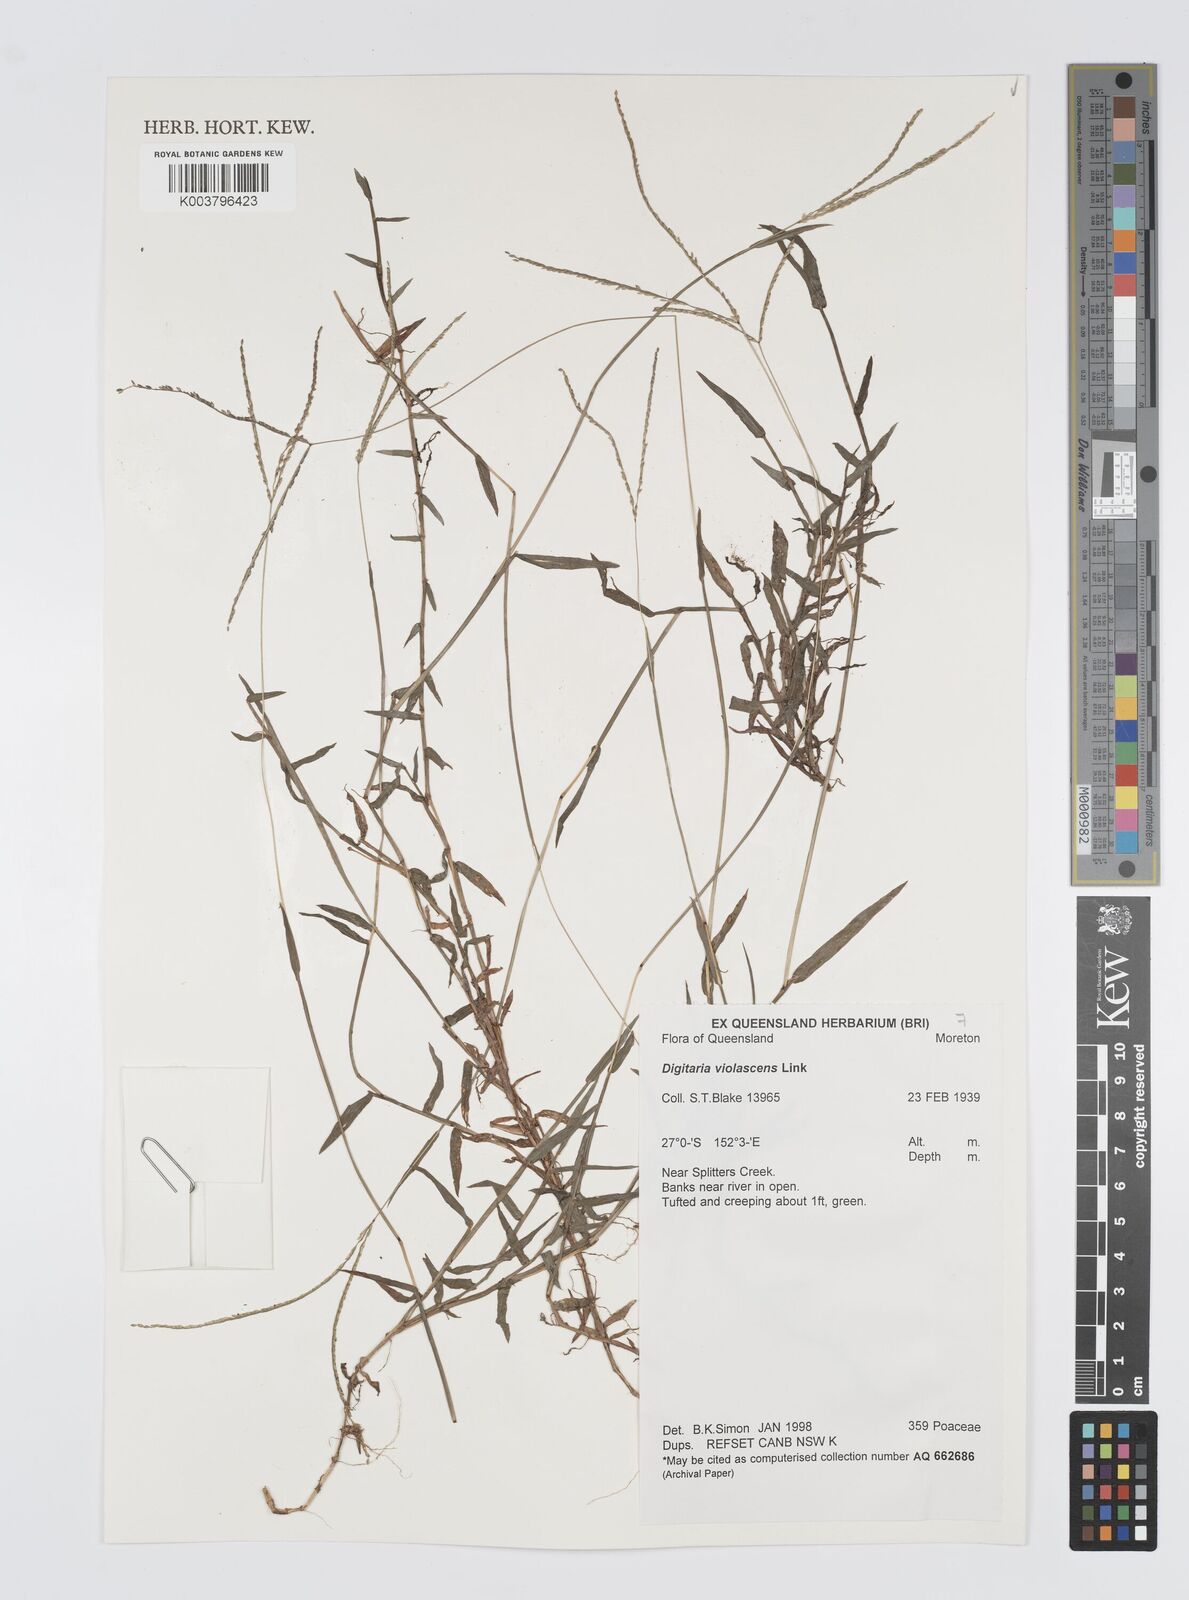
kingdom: Plantae
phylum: Tracheophyta
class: Liliopsida
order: Poales
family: Poaceae
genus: Digitaria
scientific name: Digitaria violascens
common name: Violet crabgrass
